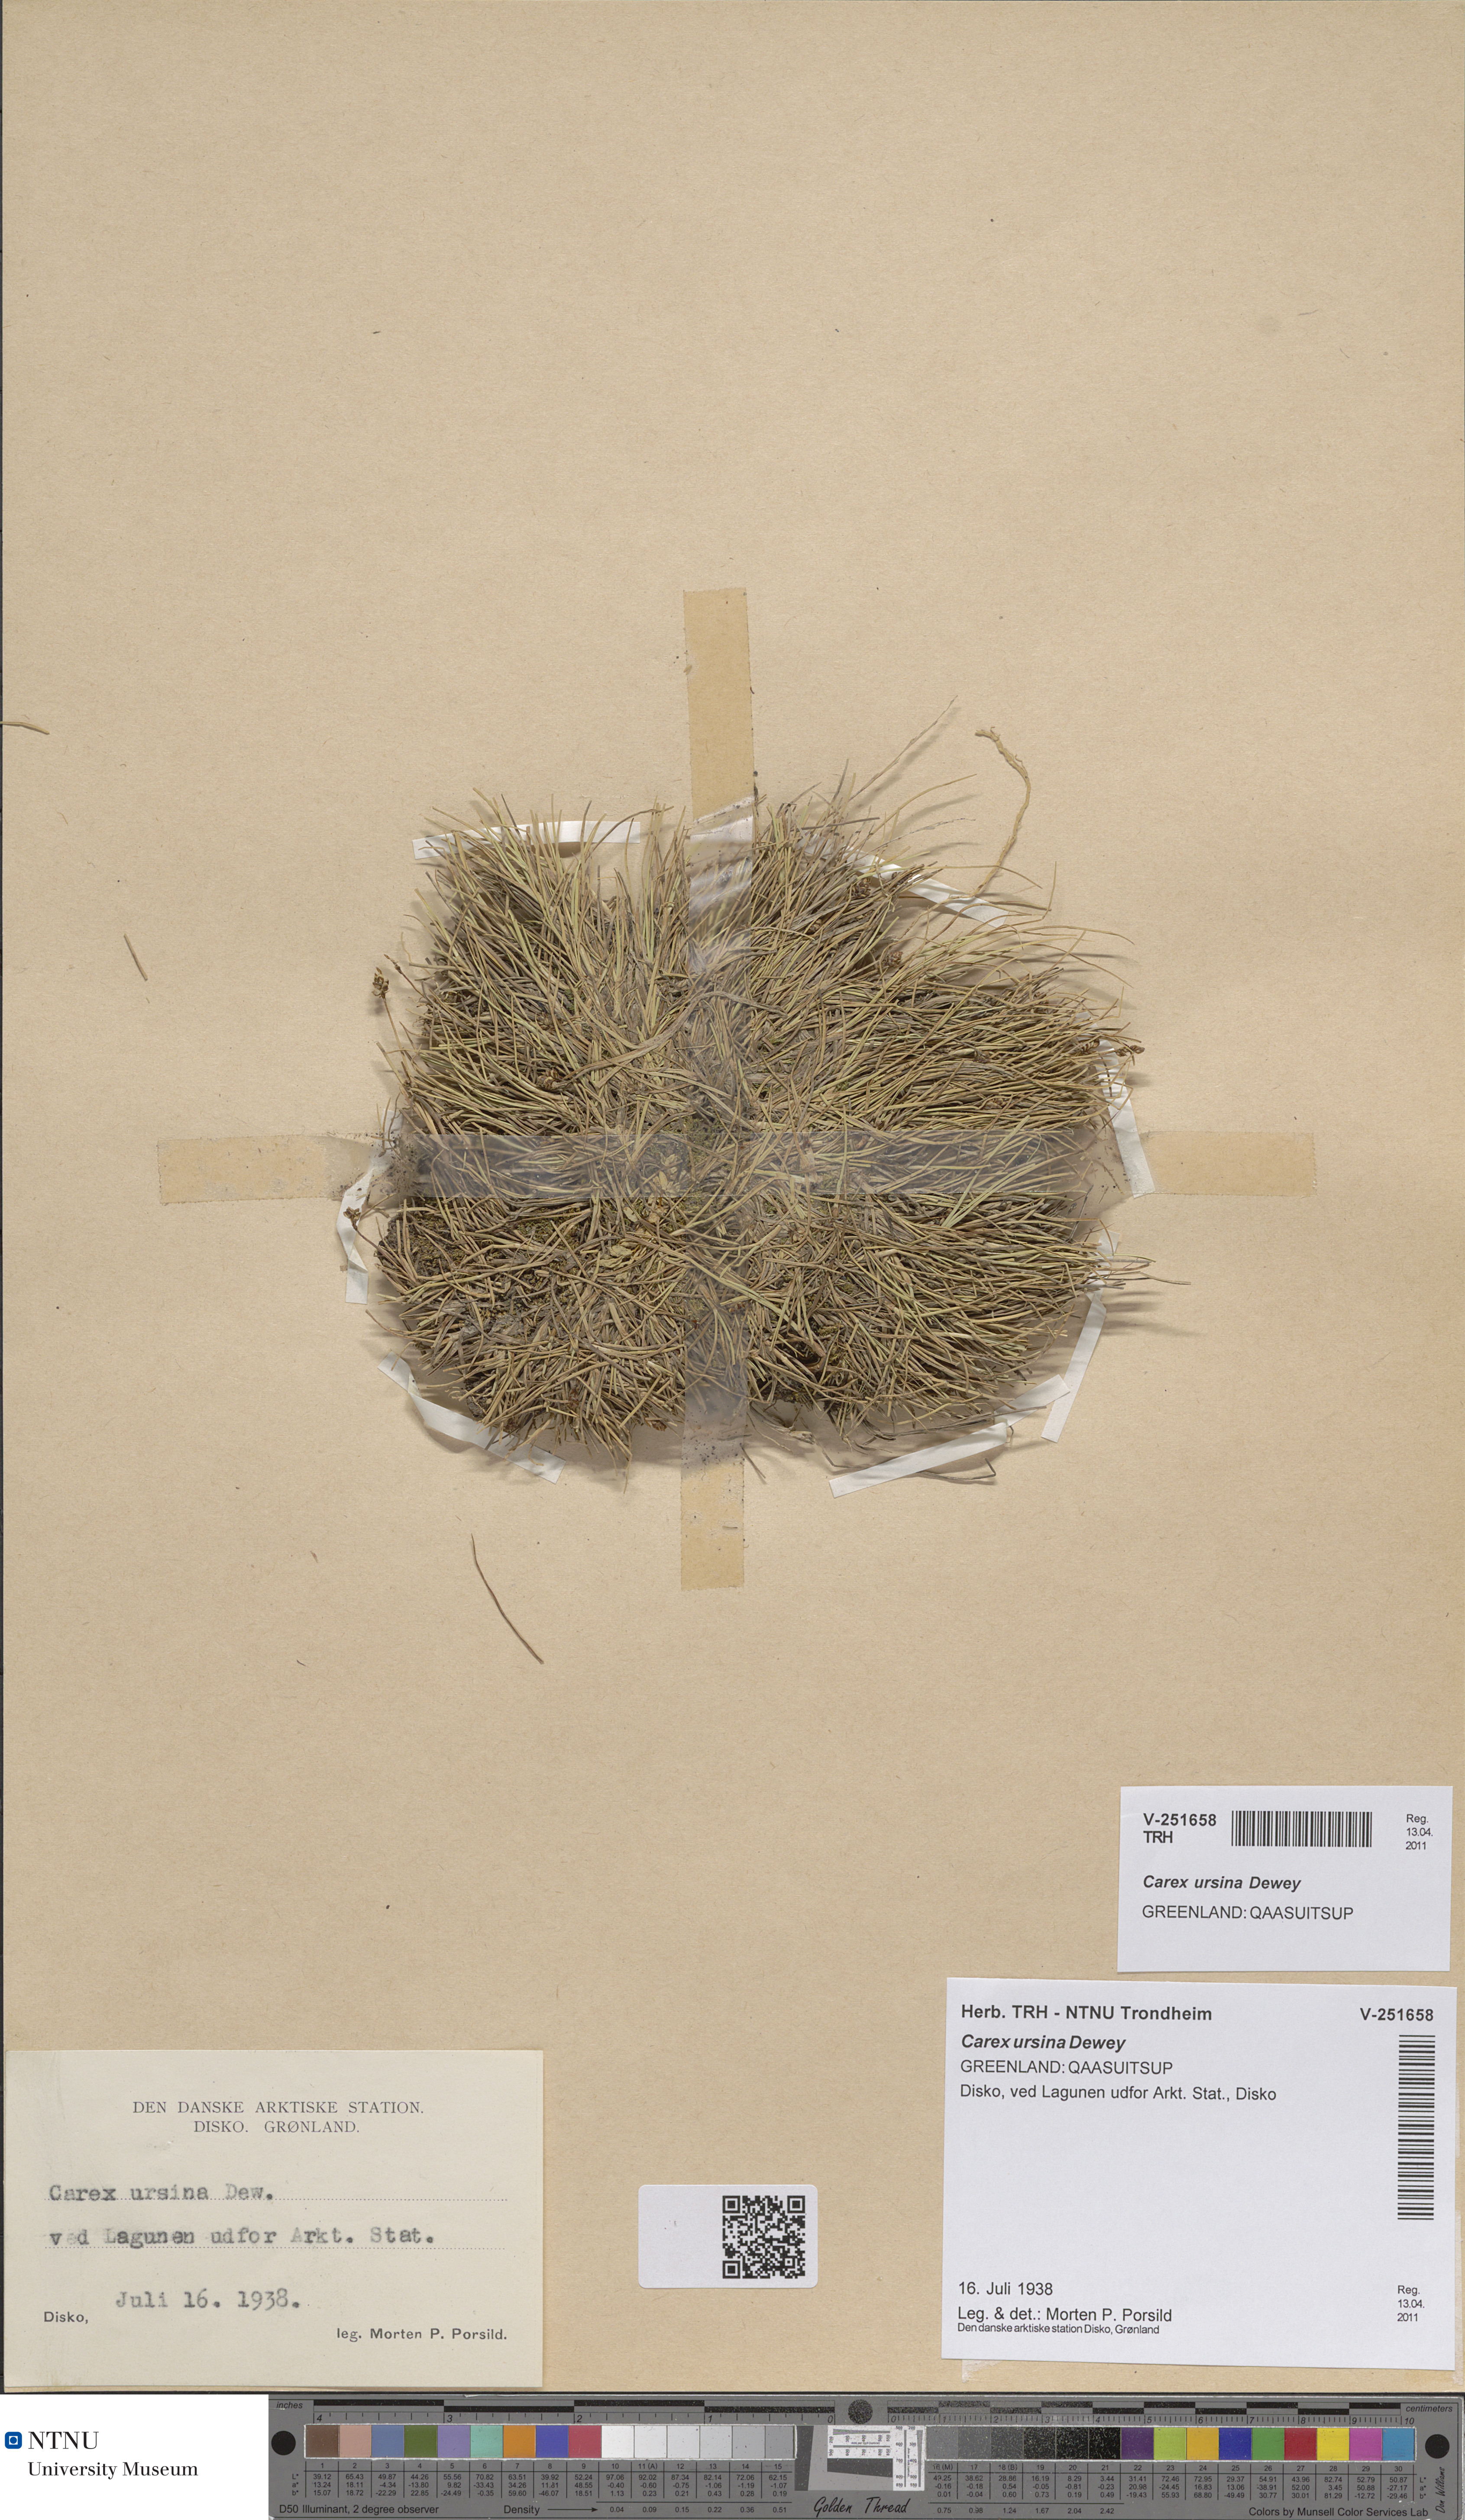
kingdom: Plantae
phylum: Tracheophyta
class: Liliopsida
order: Poales
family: Cyperaceae
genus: Carex
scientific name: Carex ursina
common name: Bear sedge
